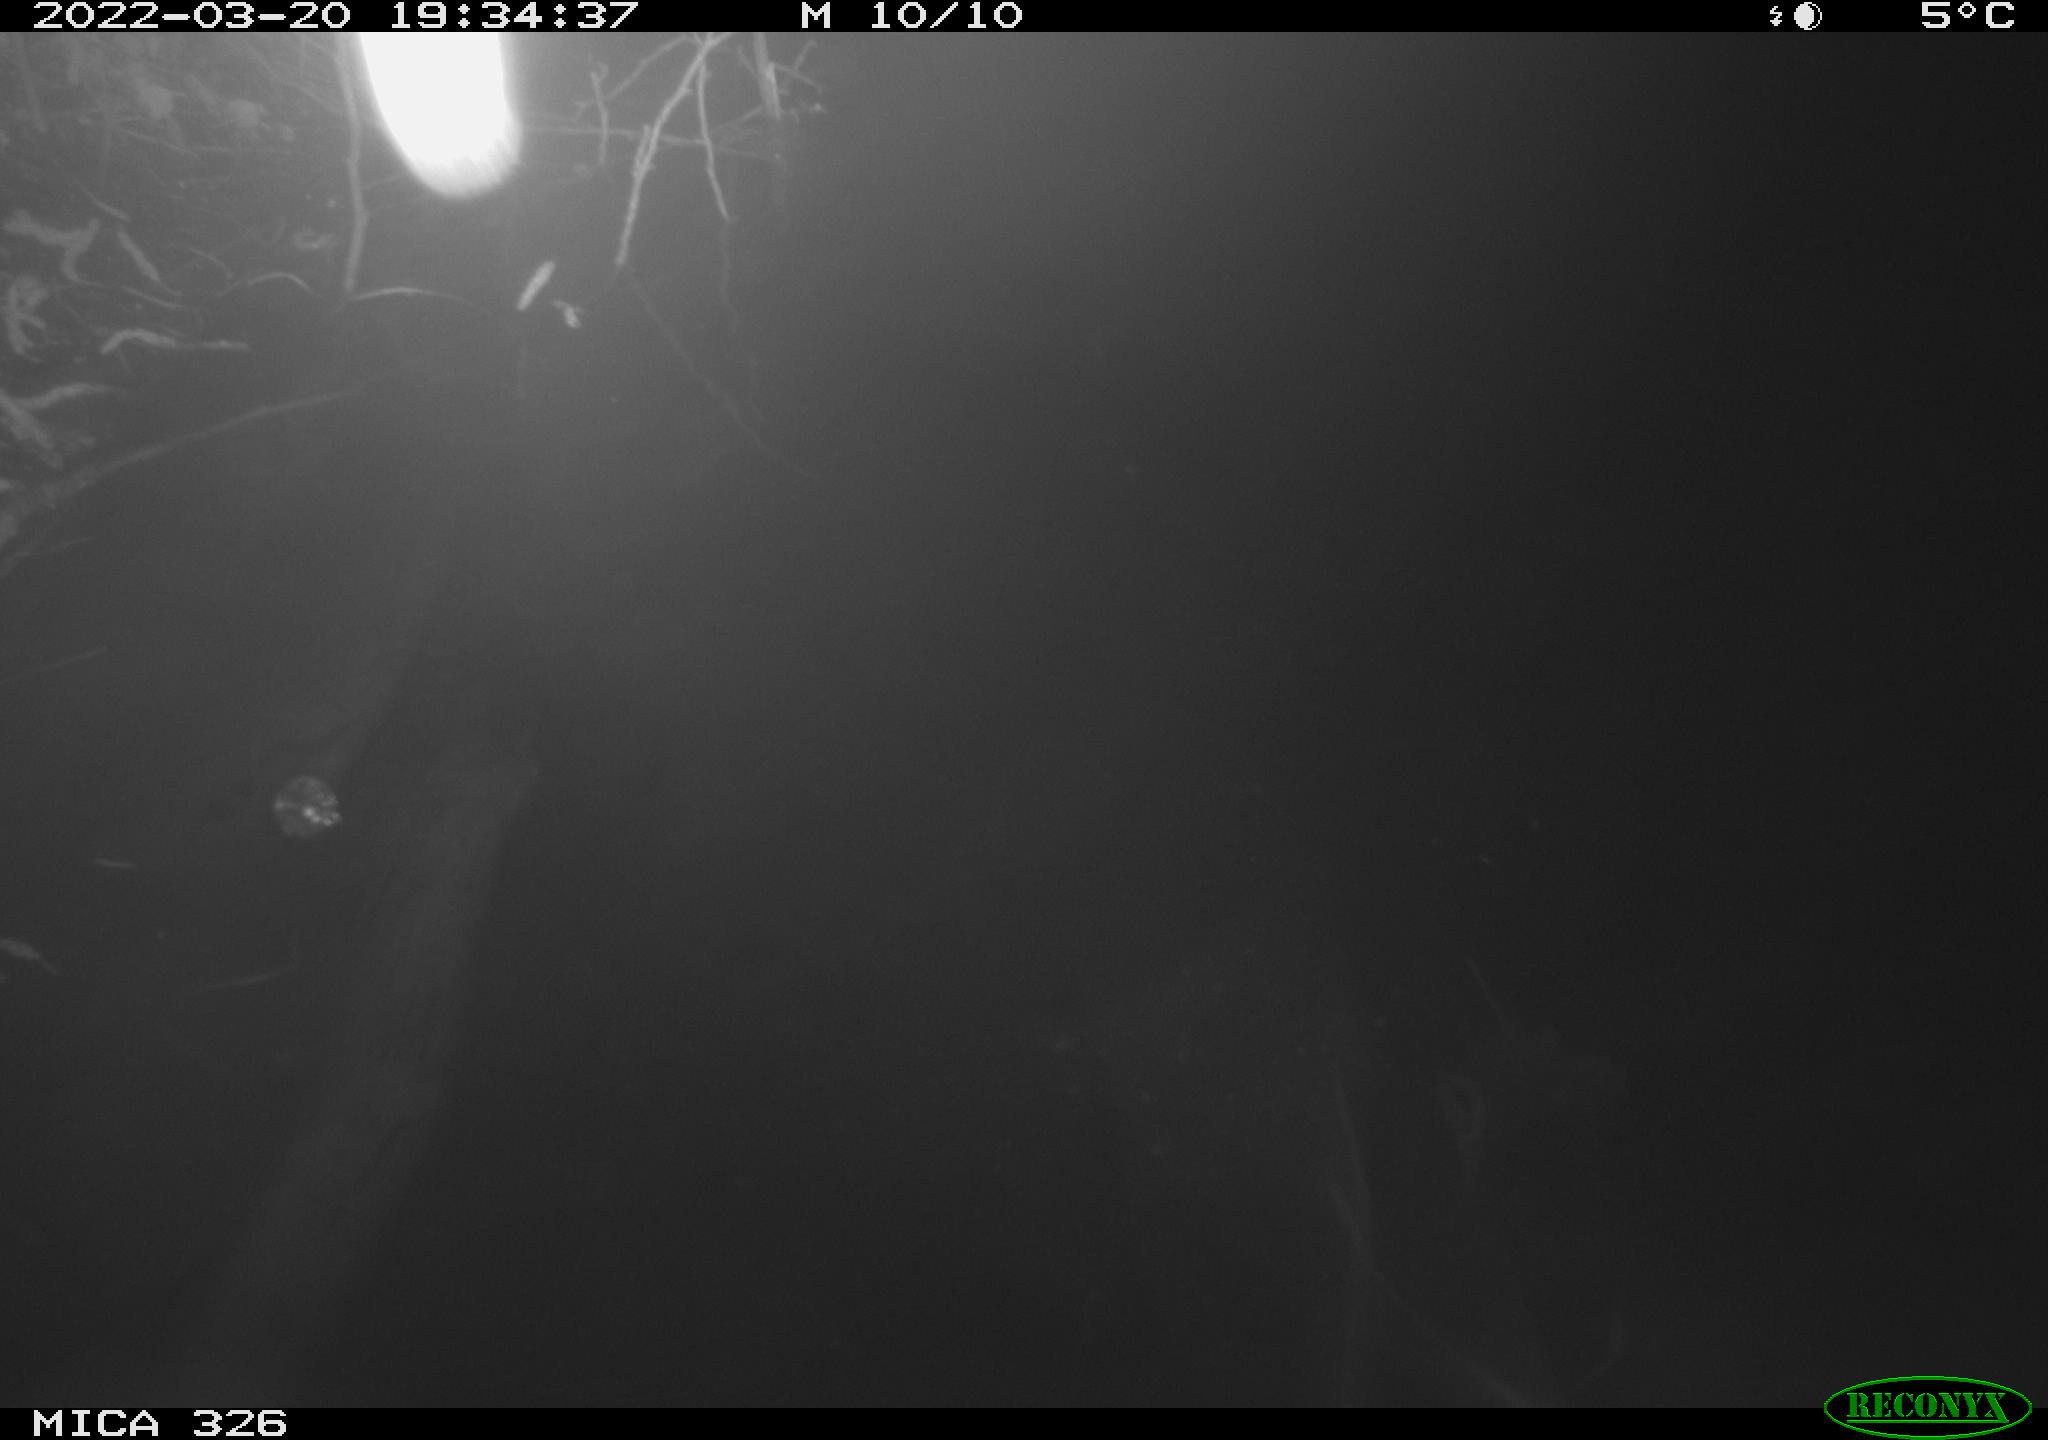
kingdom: Animalia
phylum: Chordata
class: Mammalia
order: Rodentia
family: Cricetidae
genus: Ondatra
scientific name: Ondatra zibethicus
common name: Muskrat
